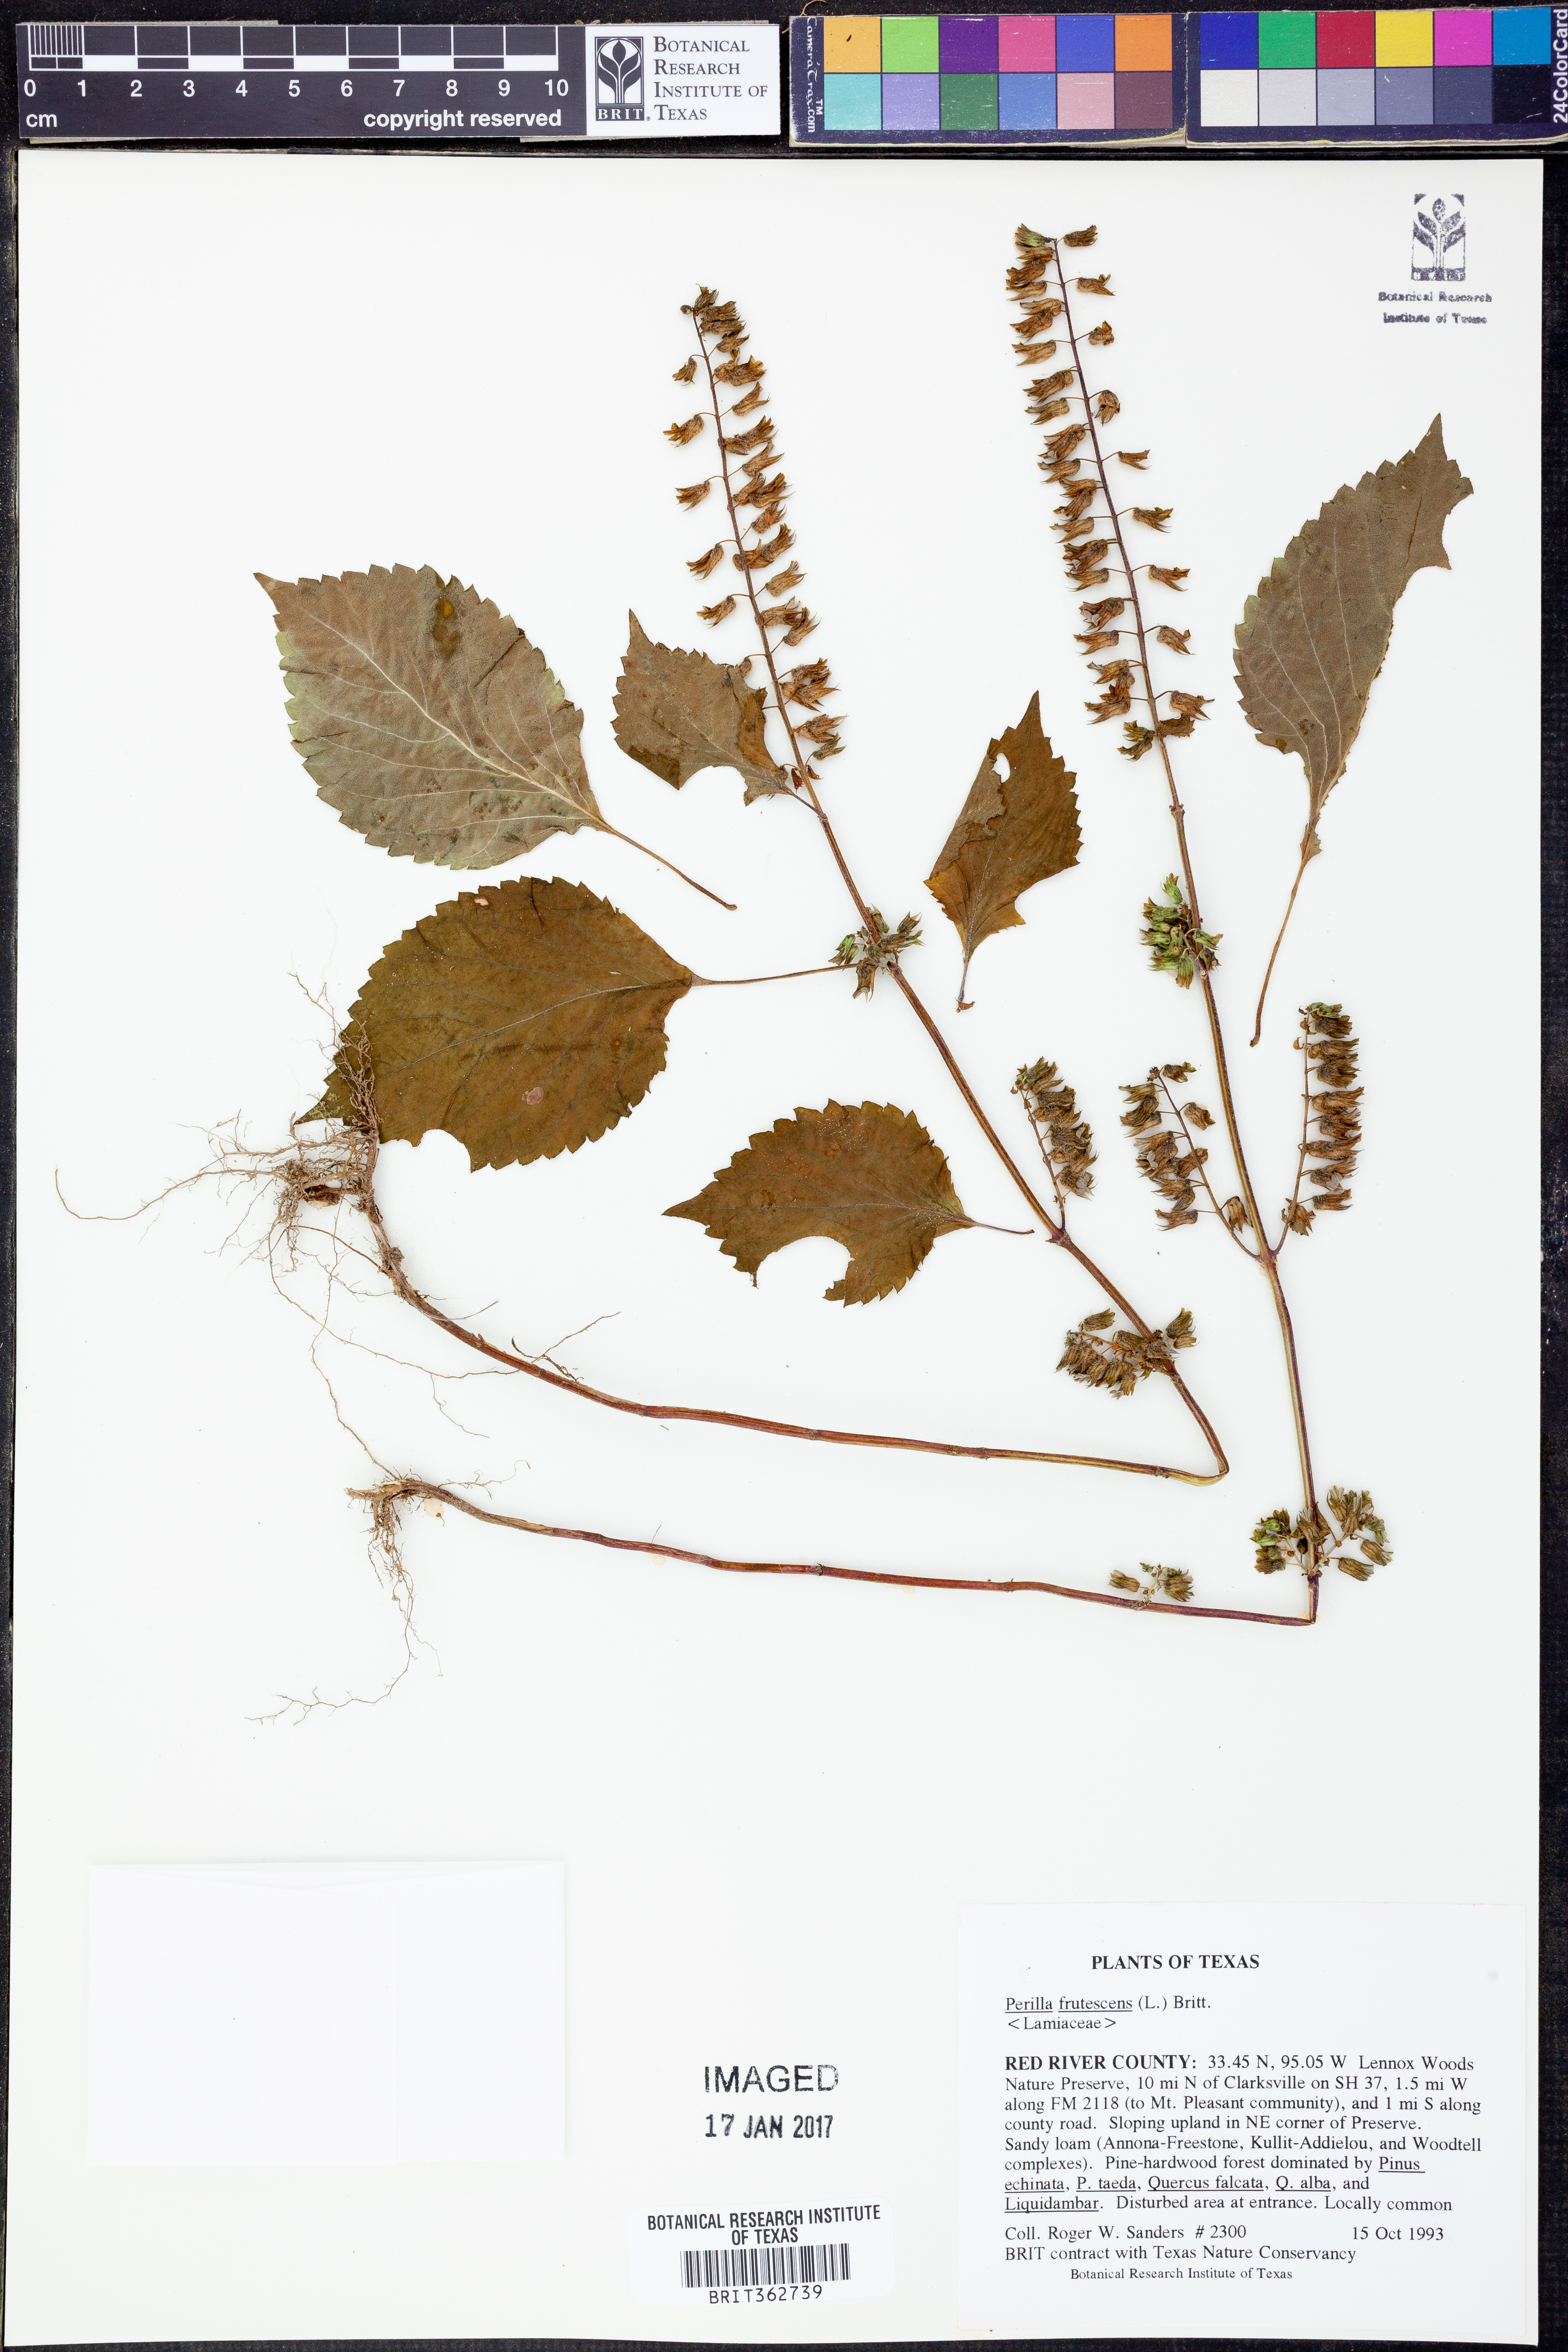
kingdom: Plantae
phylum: Tracheophyta
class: Magnoliopsida
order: Lamiales
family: Lamiaceae
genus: Perilla
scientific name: Perilla frutescens
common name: Perilla
